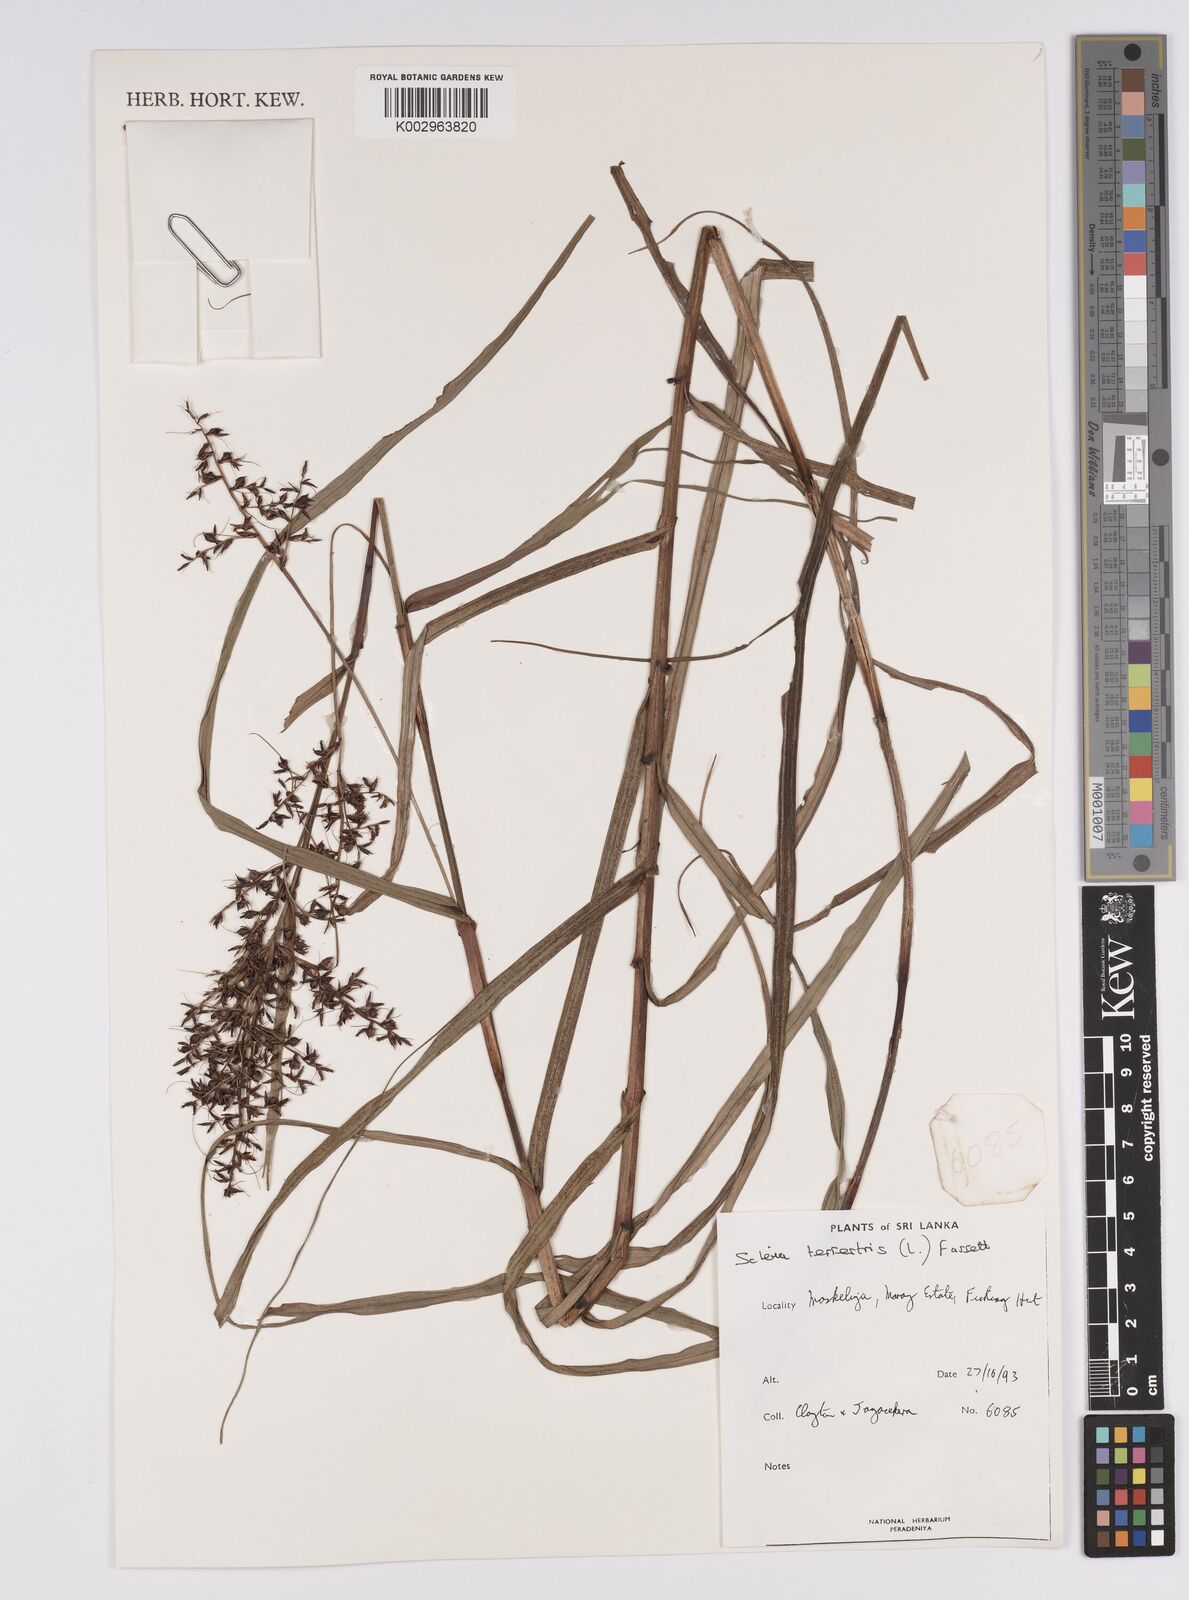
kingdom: Plantae
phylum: Tracheophyta
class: Liliopsida
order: Poales
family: Cyperaceae
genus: Scleria
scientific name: Scleria terrestris
